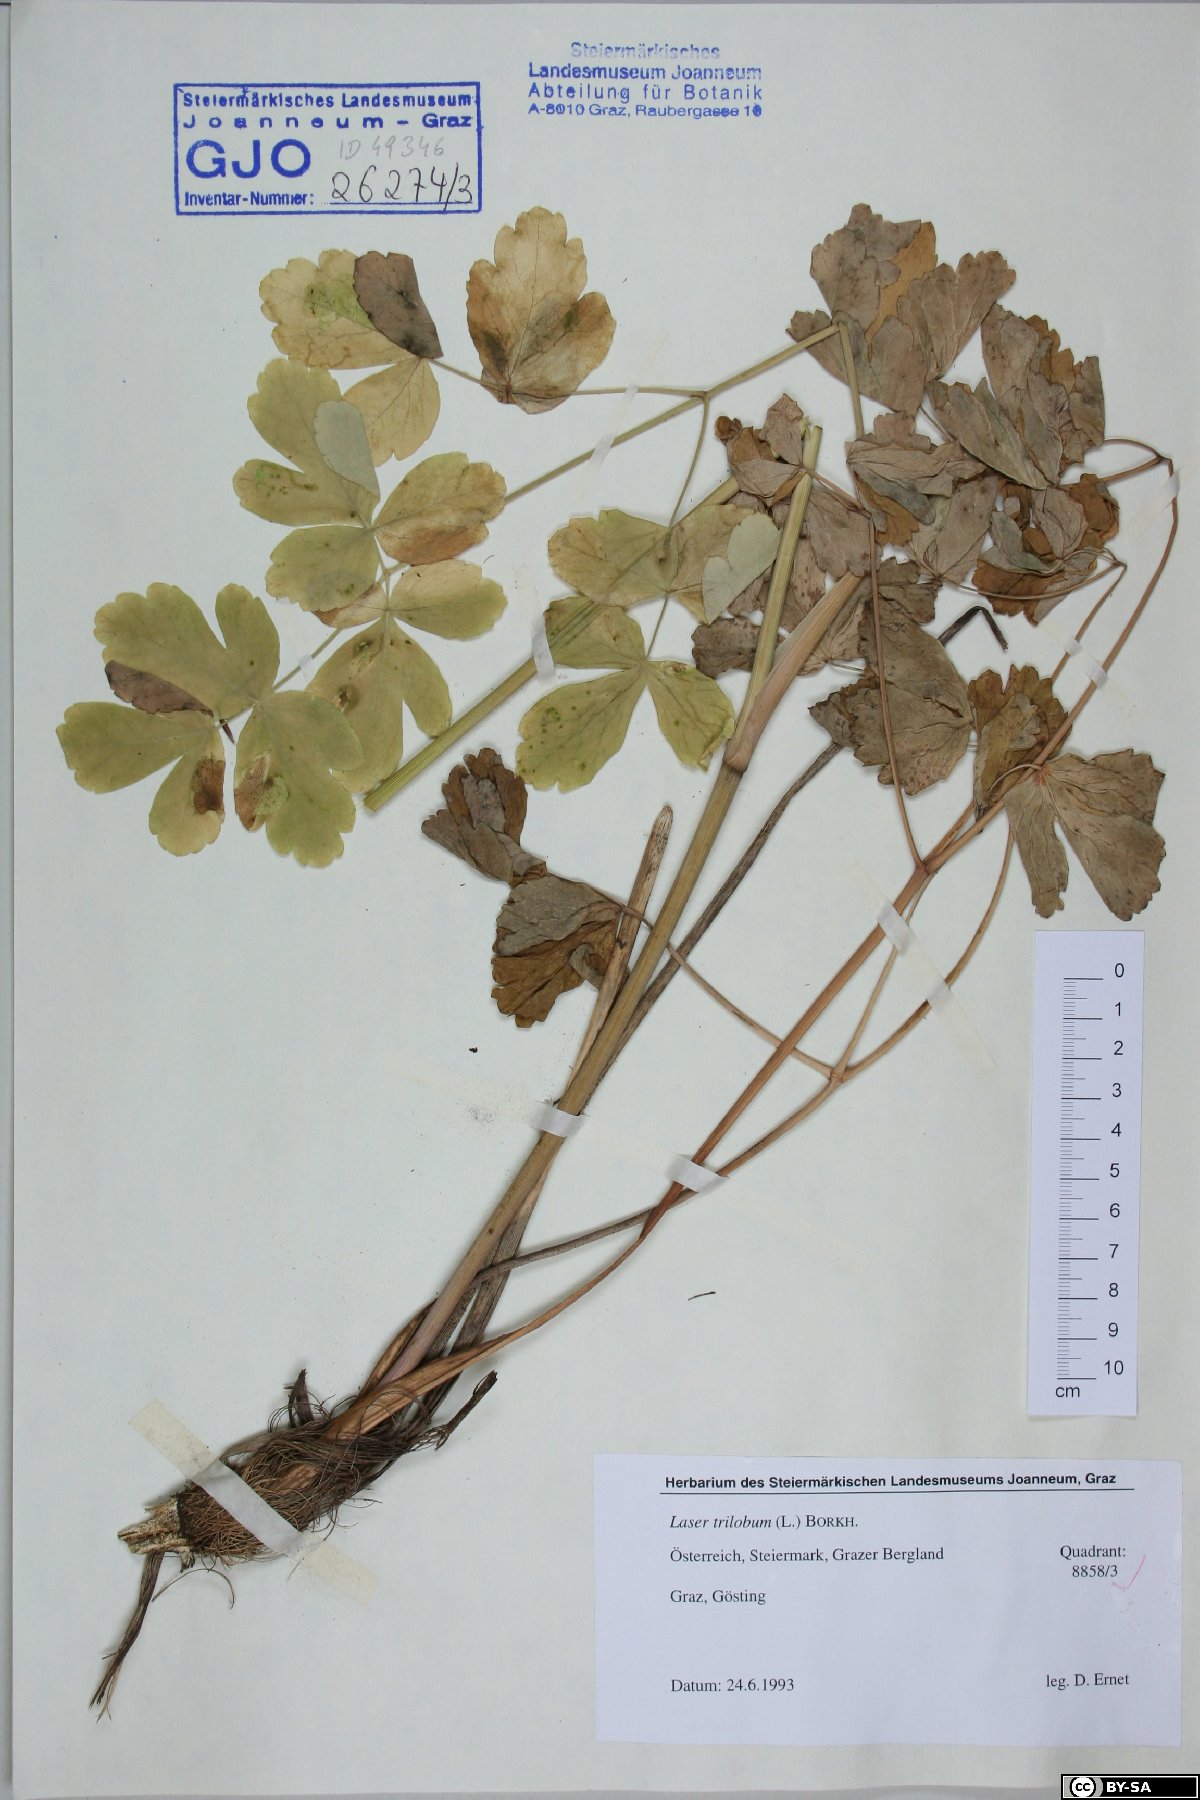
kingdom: Plantae
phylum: Tracheophyta
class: Magnoliopsida
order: Apiales
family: Apiaceae
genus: Laser
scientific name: Laser trilobum
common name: Laser
